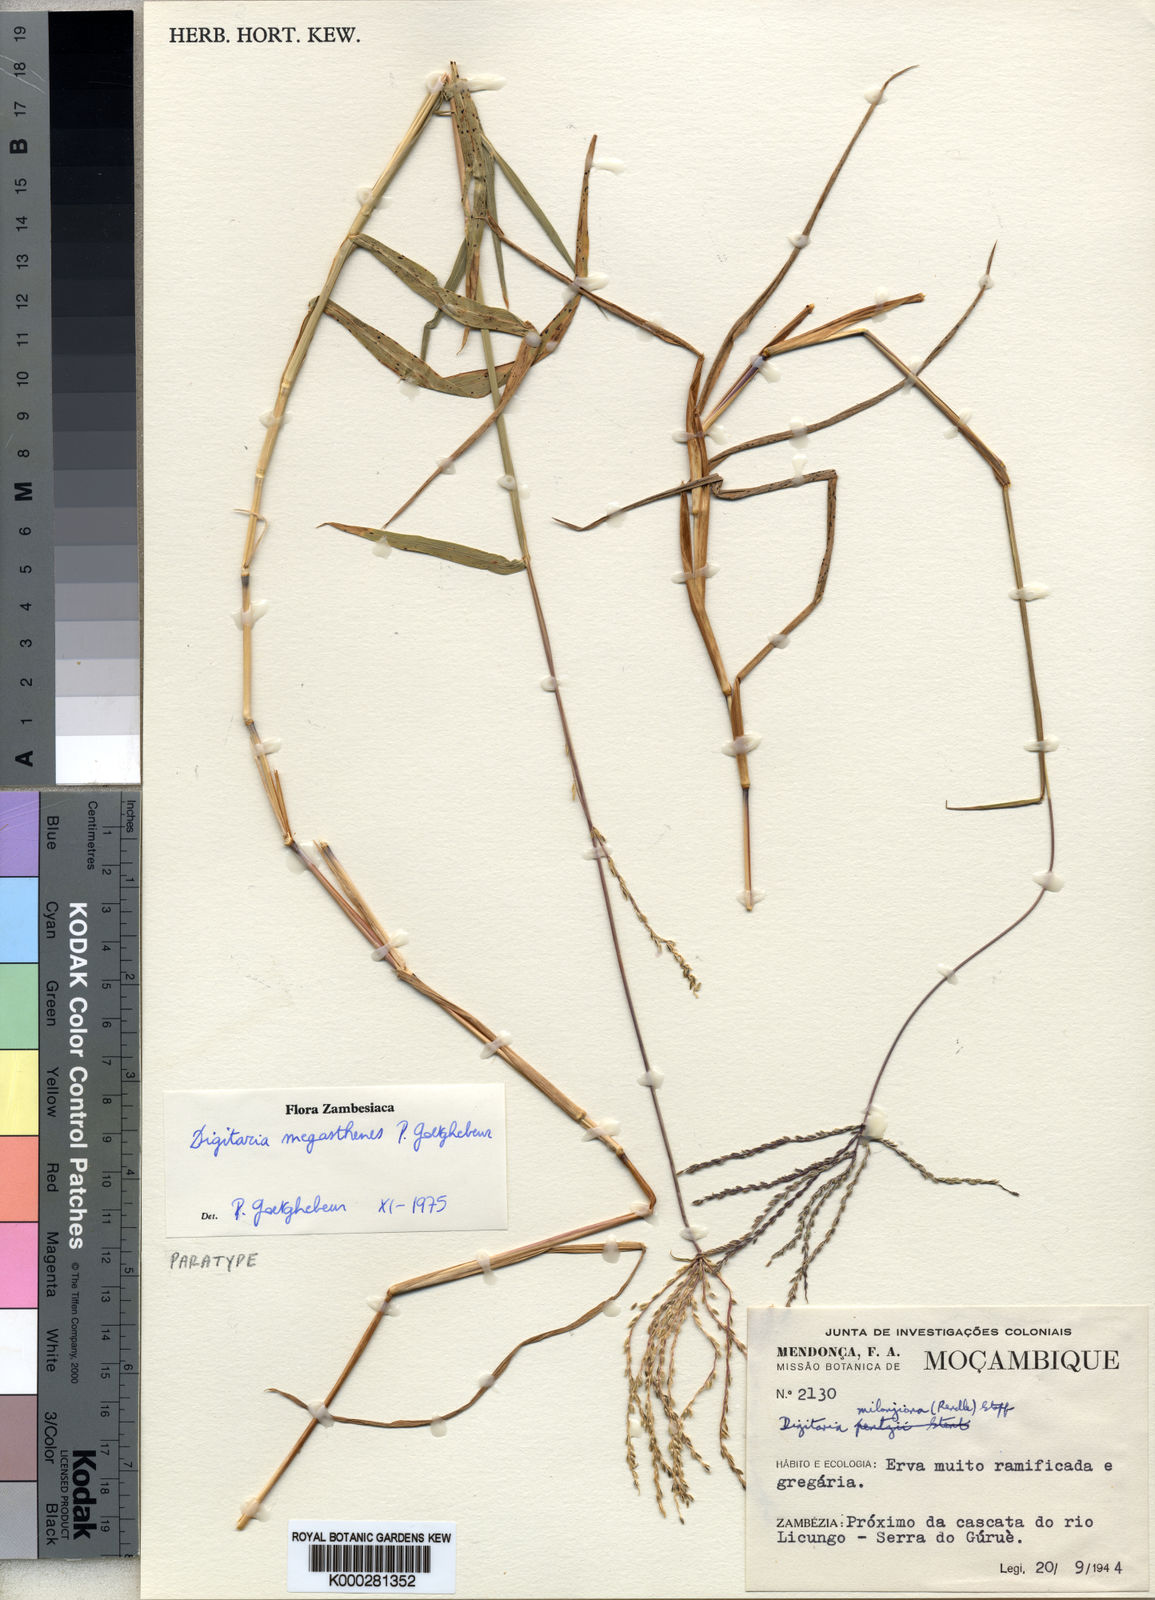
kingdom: Plantae
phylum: Tracheophyta
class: Liliopsida
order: Poales
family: Poaceae
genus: Digitaria
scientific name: Digitaria megasthenes
